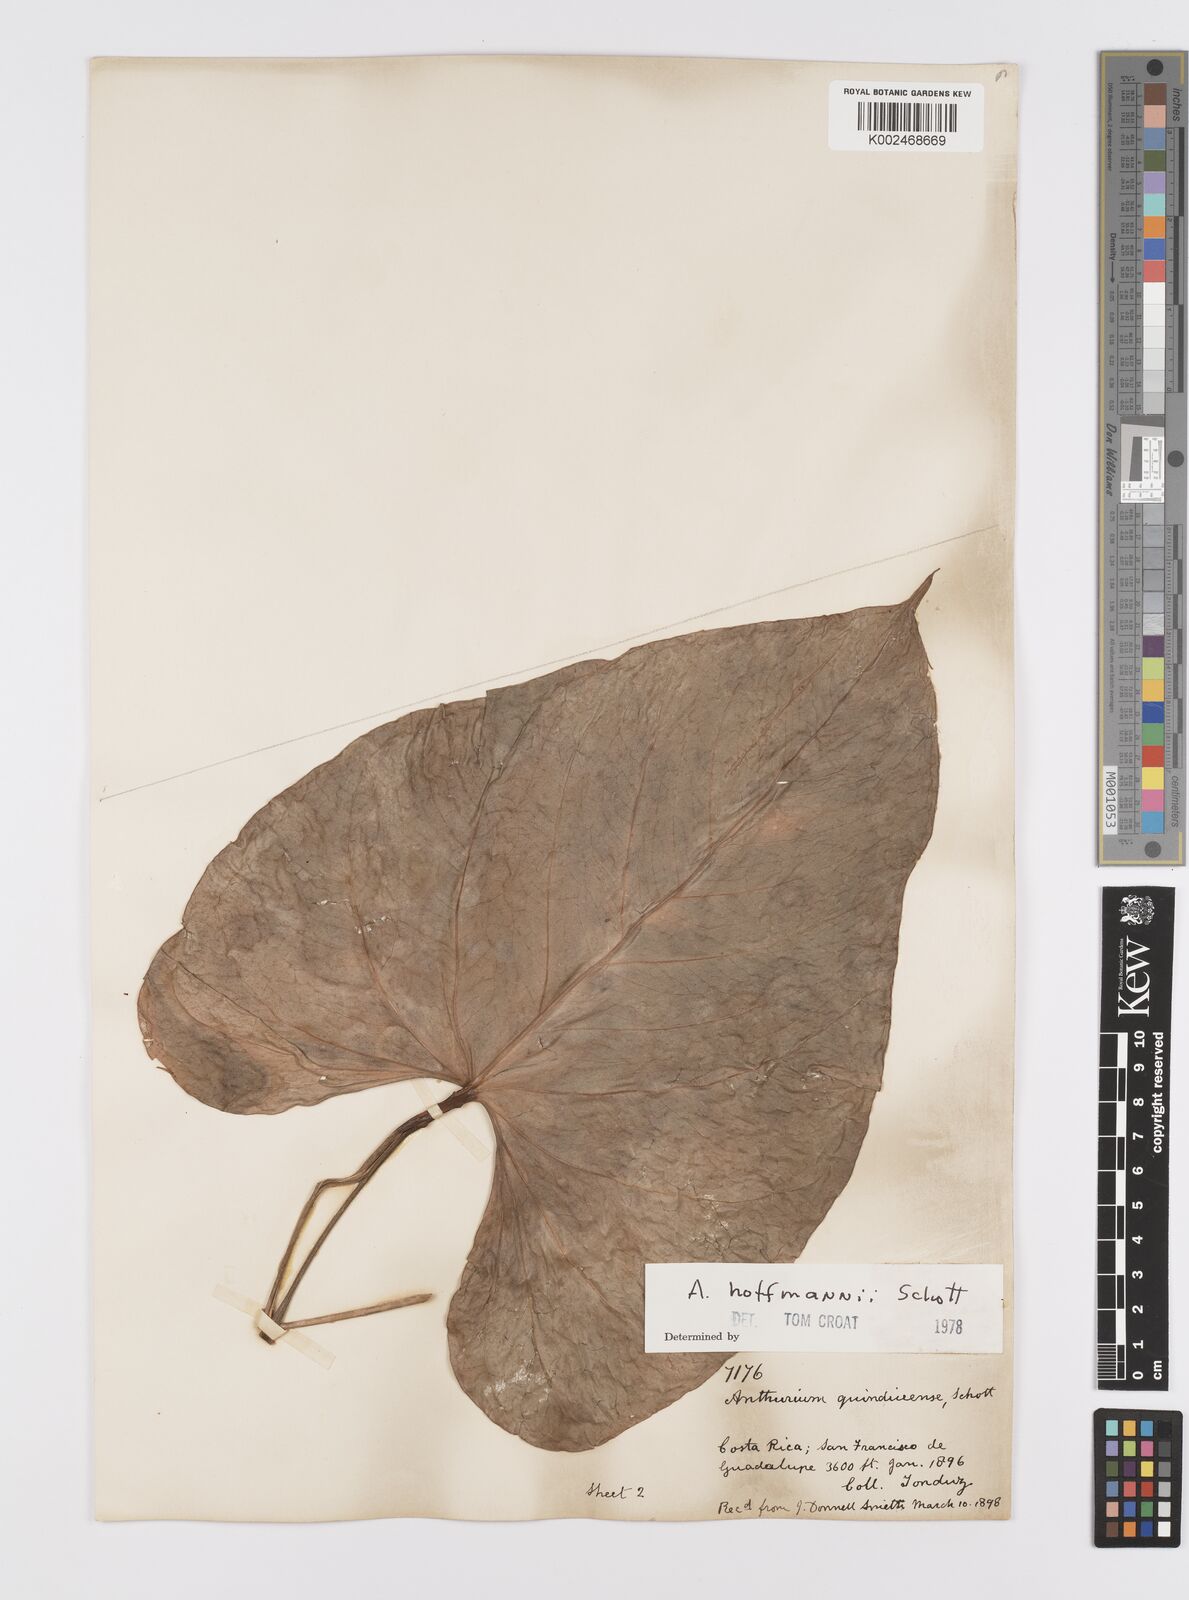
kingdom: Plantae
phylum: Tracheophyta
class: Liliopsida
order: Alismatales
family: Araceae
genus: Anthurium
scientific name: Anthurium hoffmannii
